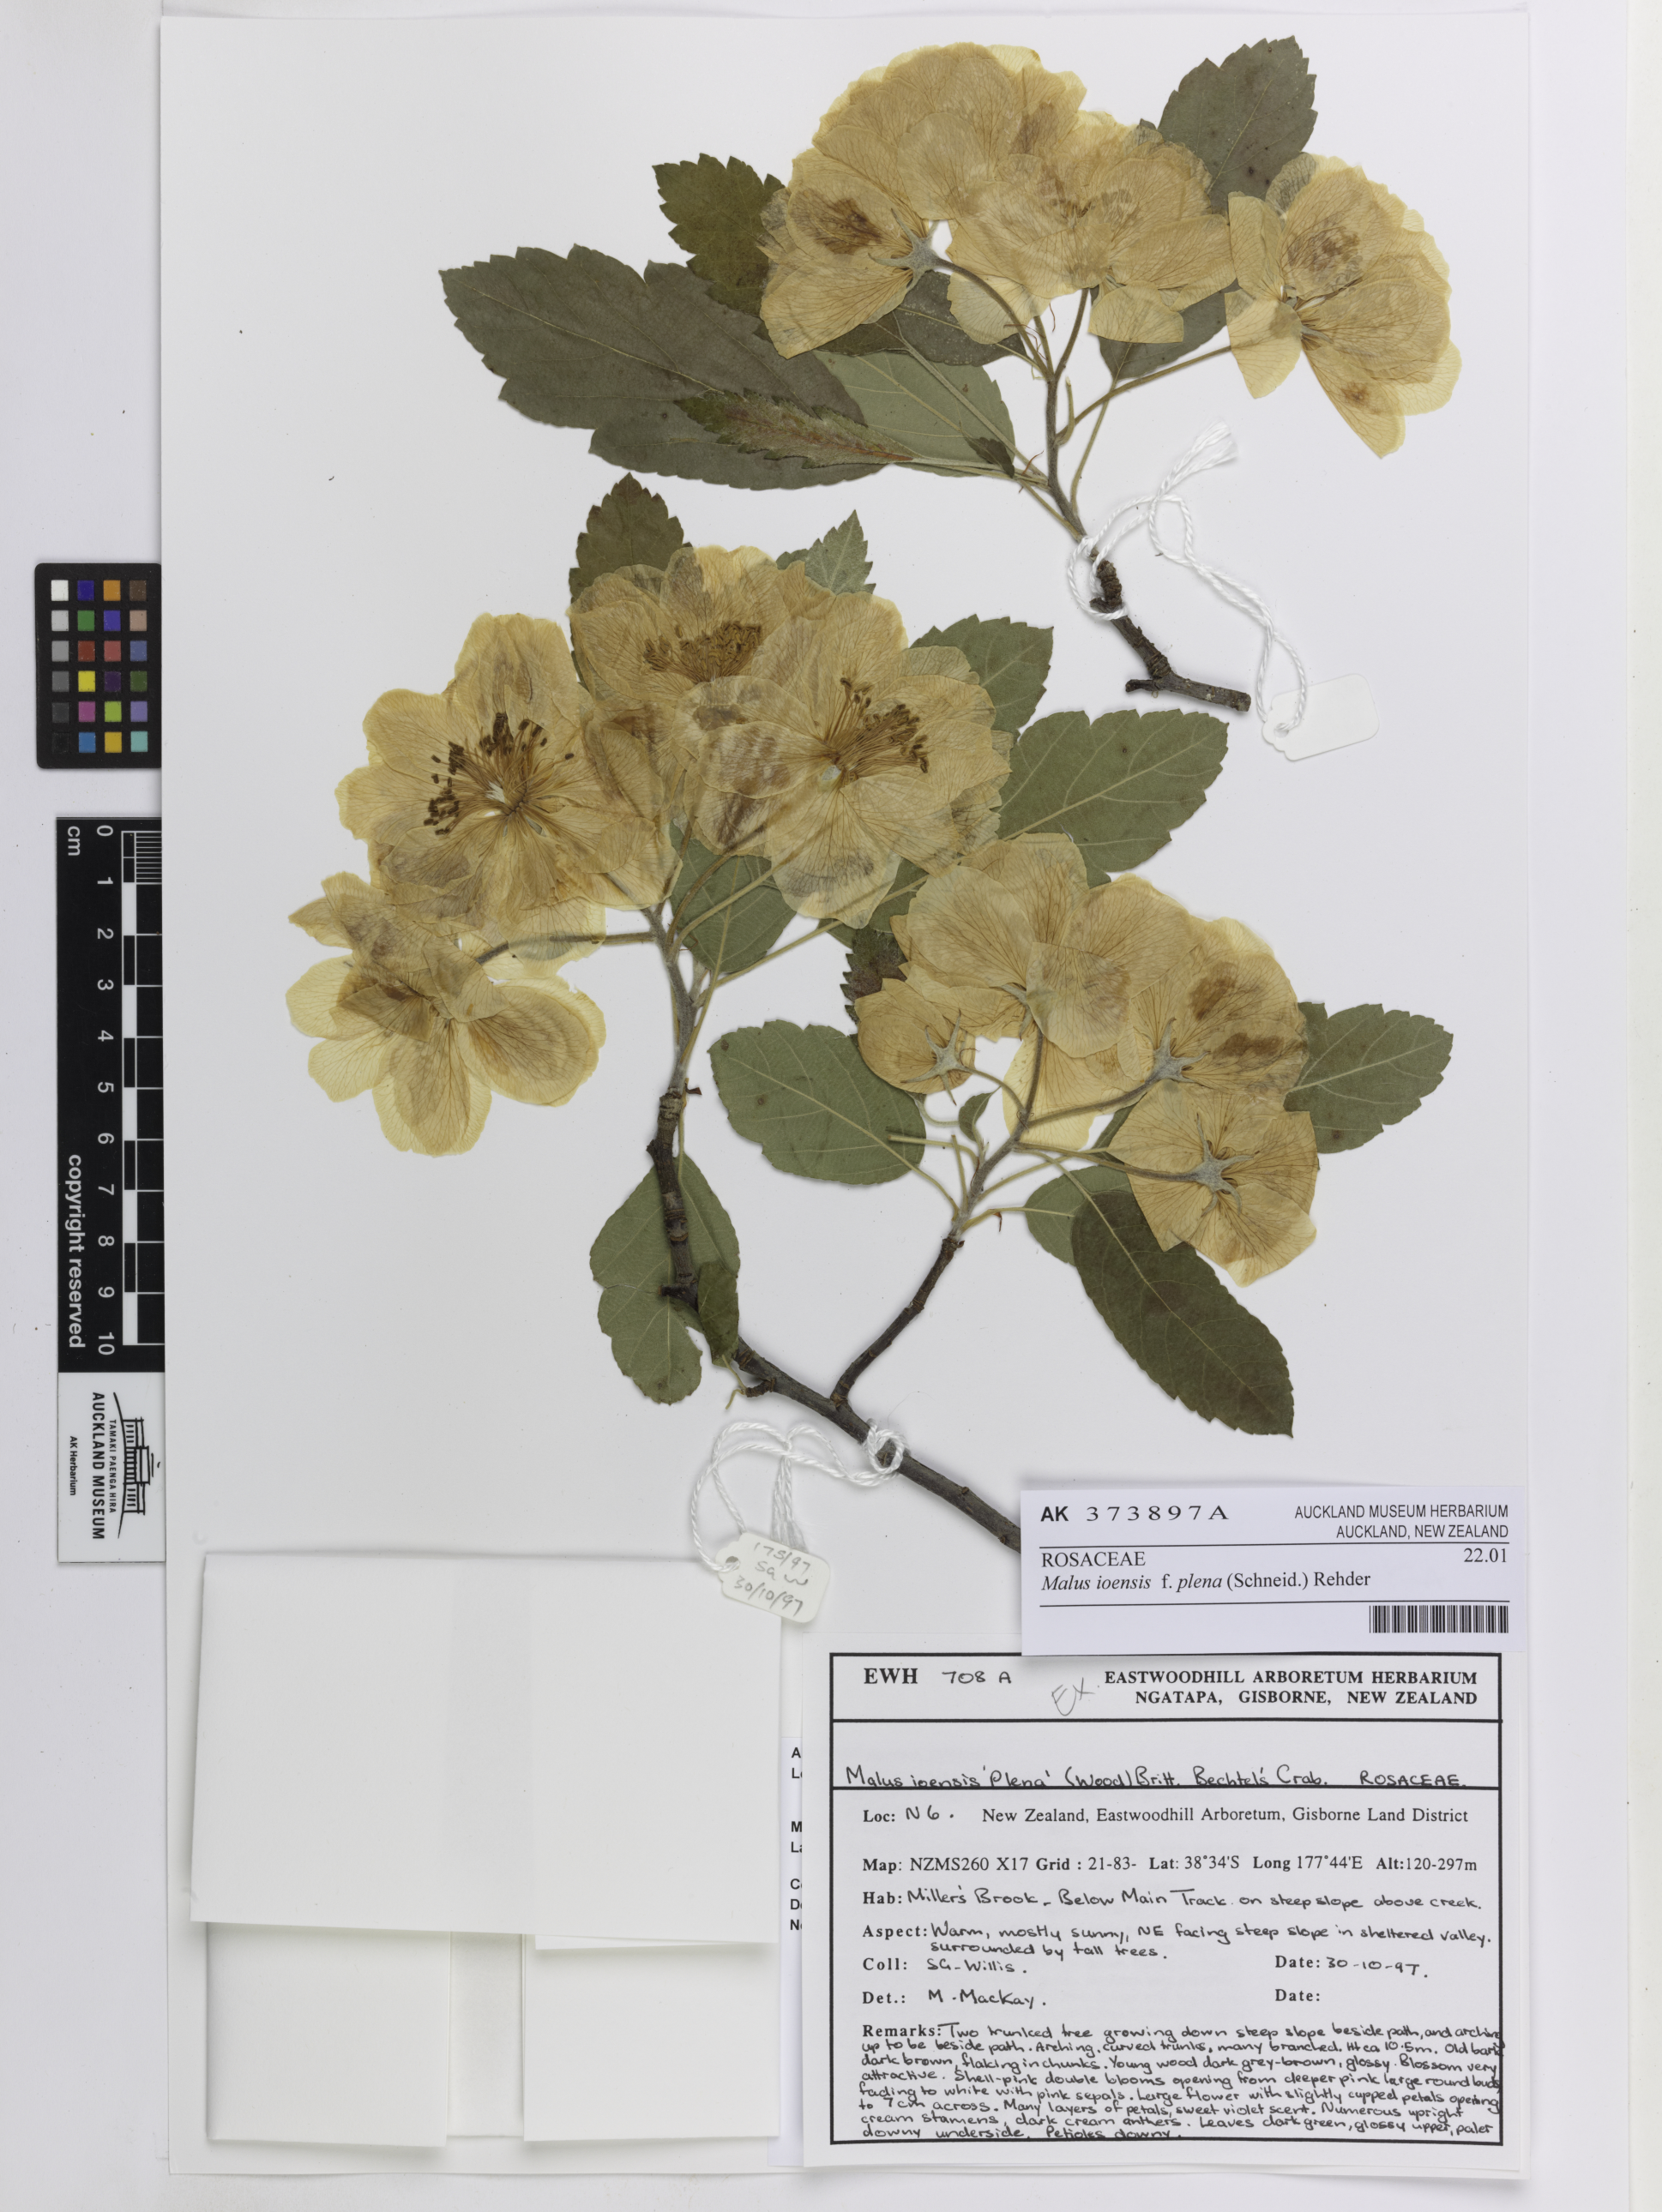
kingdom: Plantae
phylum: Tracheophyta
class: Magnoliopsida
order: Rosales
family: Rosaceae
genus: Malus
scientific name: Malus ioensis
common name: Iowa crab apple
